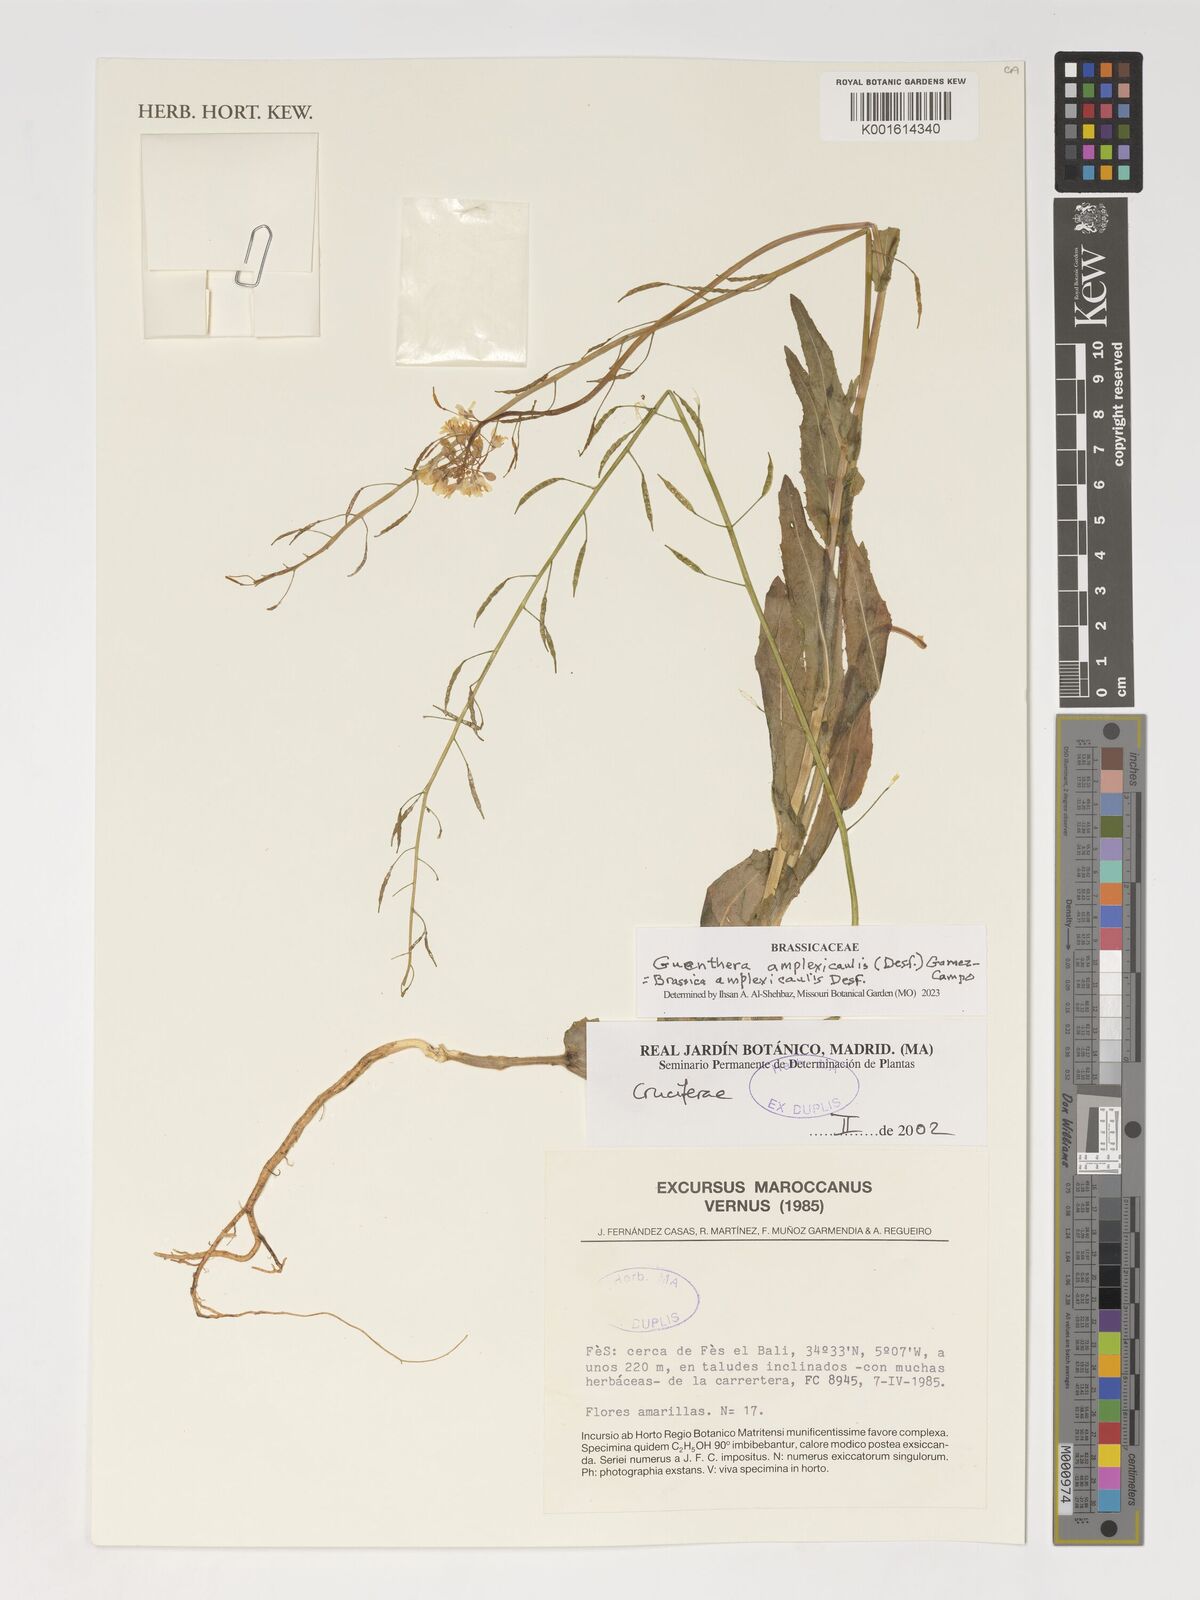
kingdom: Plantae
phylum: Tracheophyta
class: Magnoliopsida
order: Brassicales
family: Brassicaceae
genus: Brassica
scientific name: Brassica souliei
